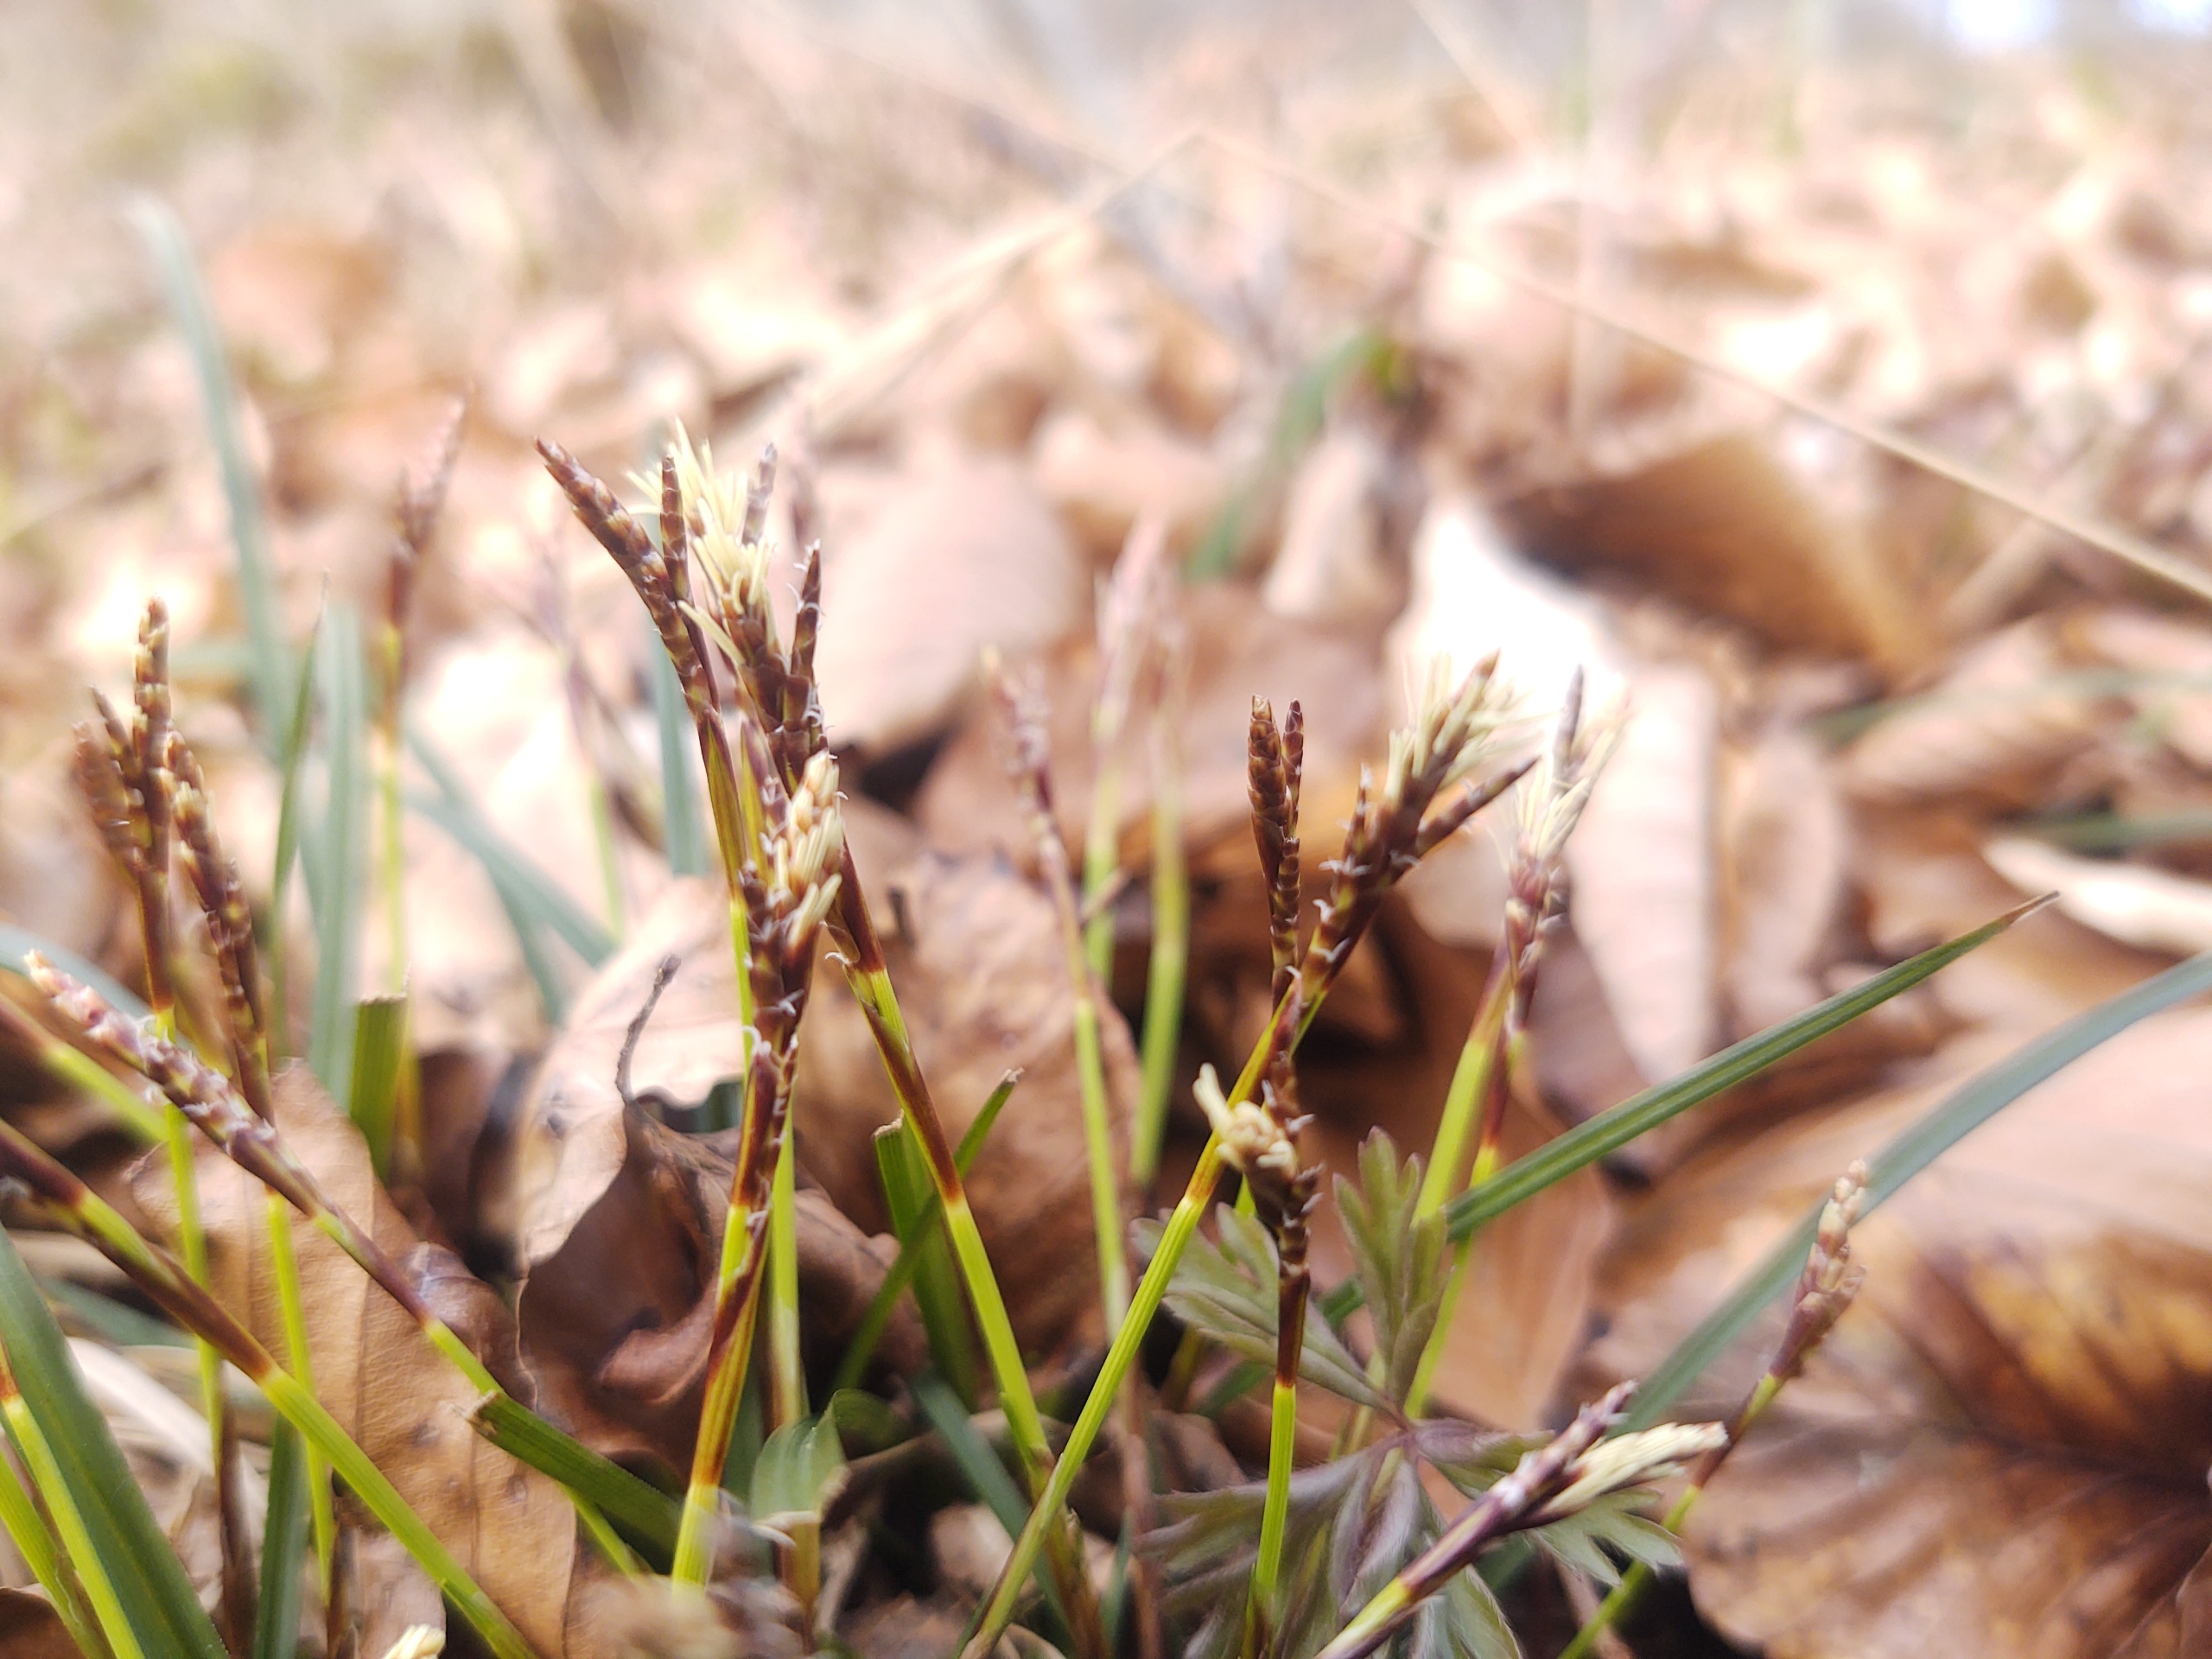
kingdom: Plantae
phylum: Tracheophyta
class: Liliopsida
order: Poales
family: Cyperaceae
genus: Carex
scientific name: Carex digitata
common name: Finger-star
